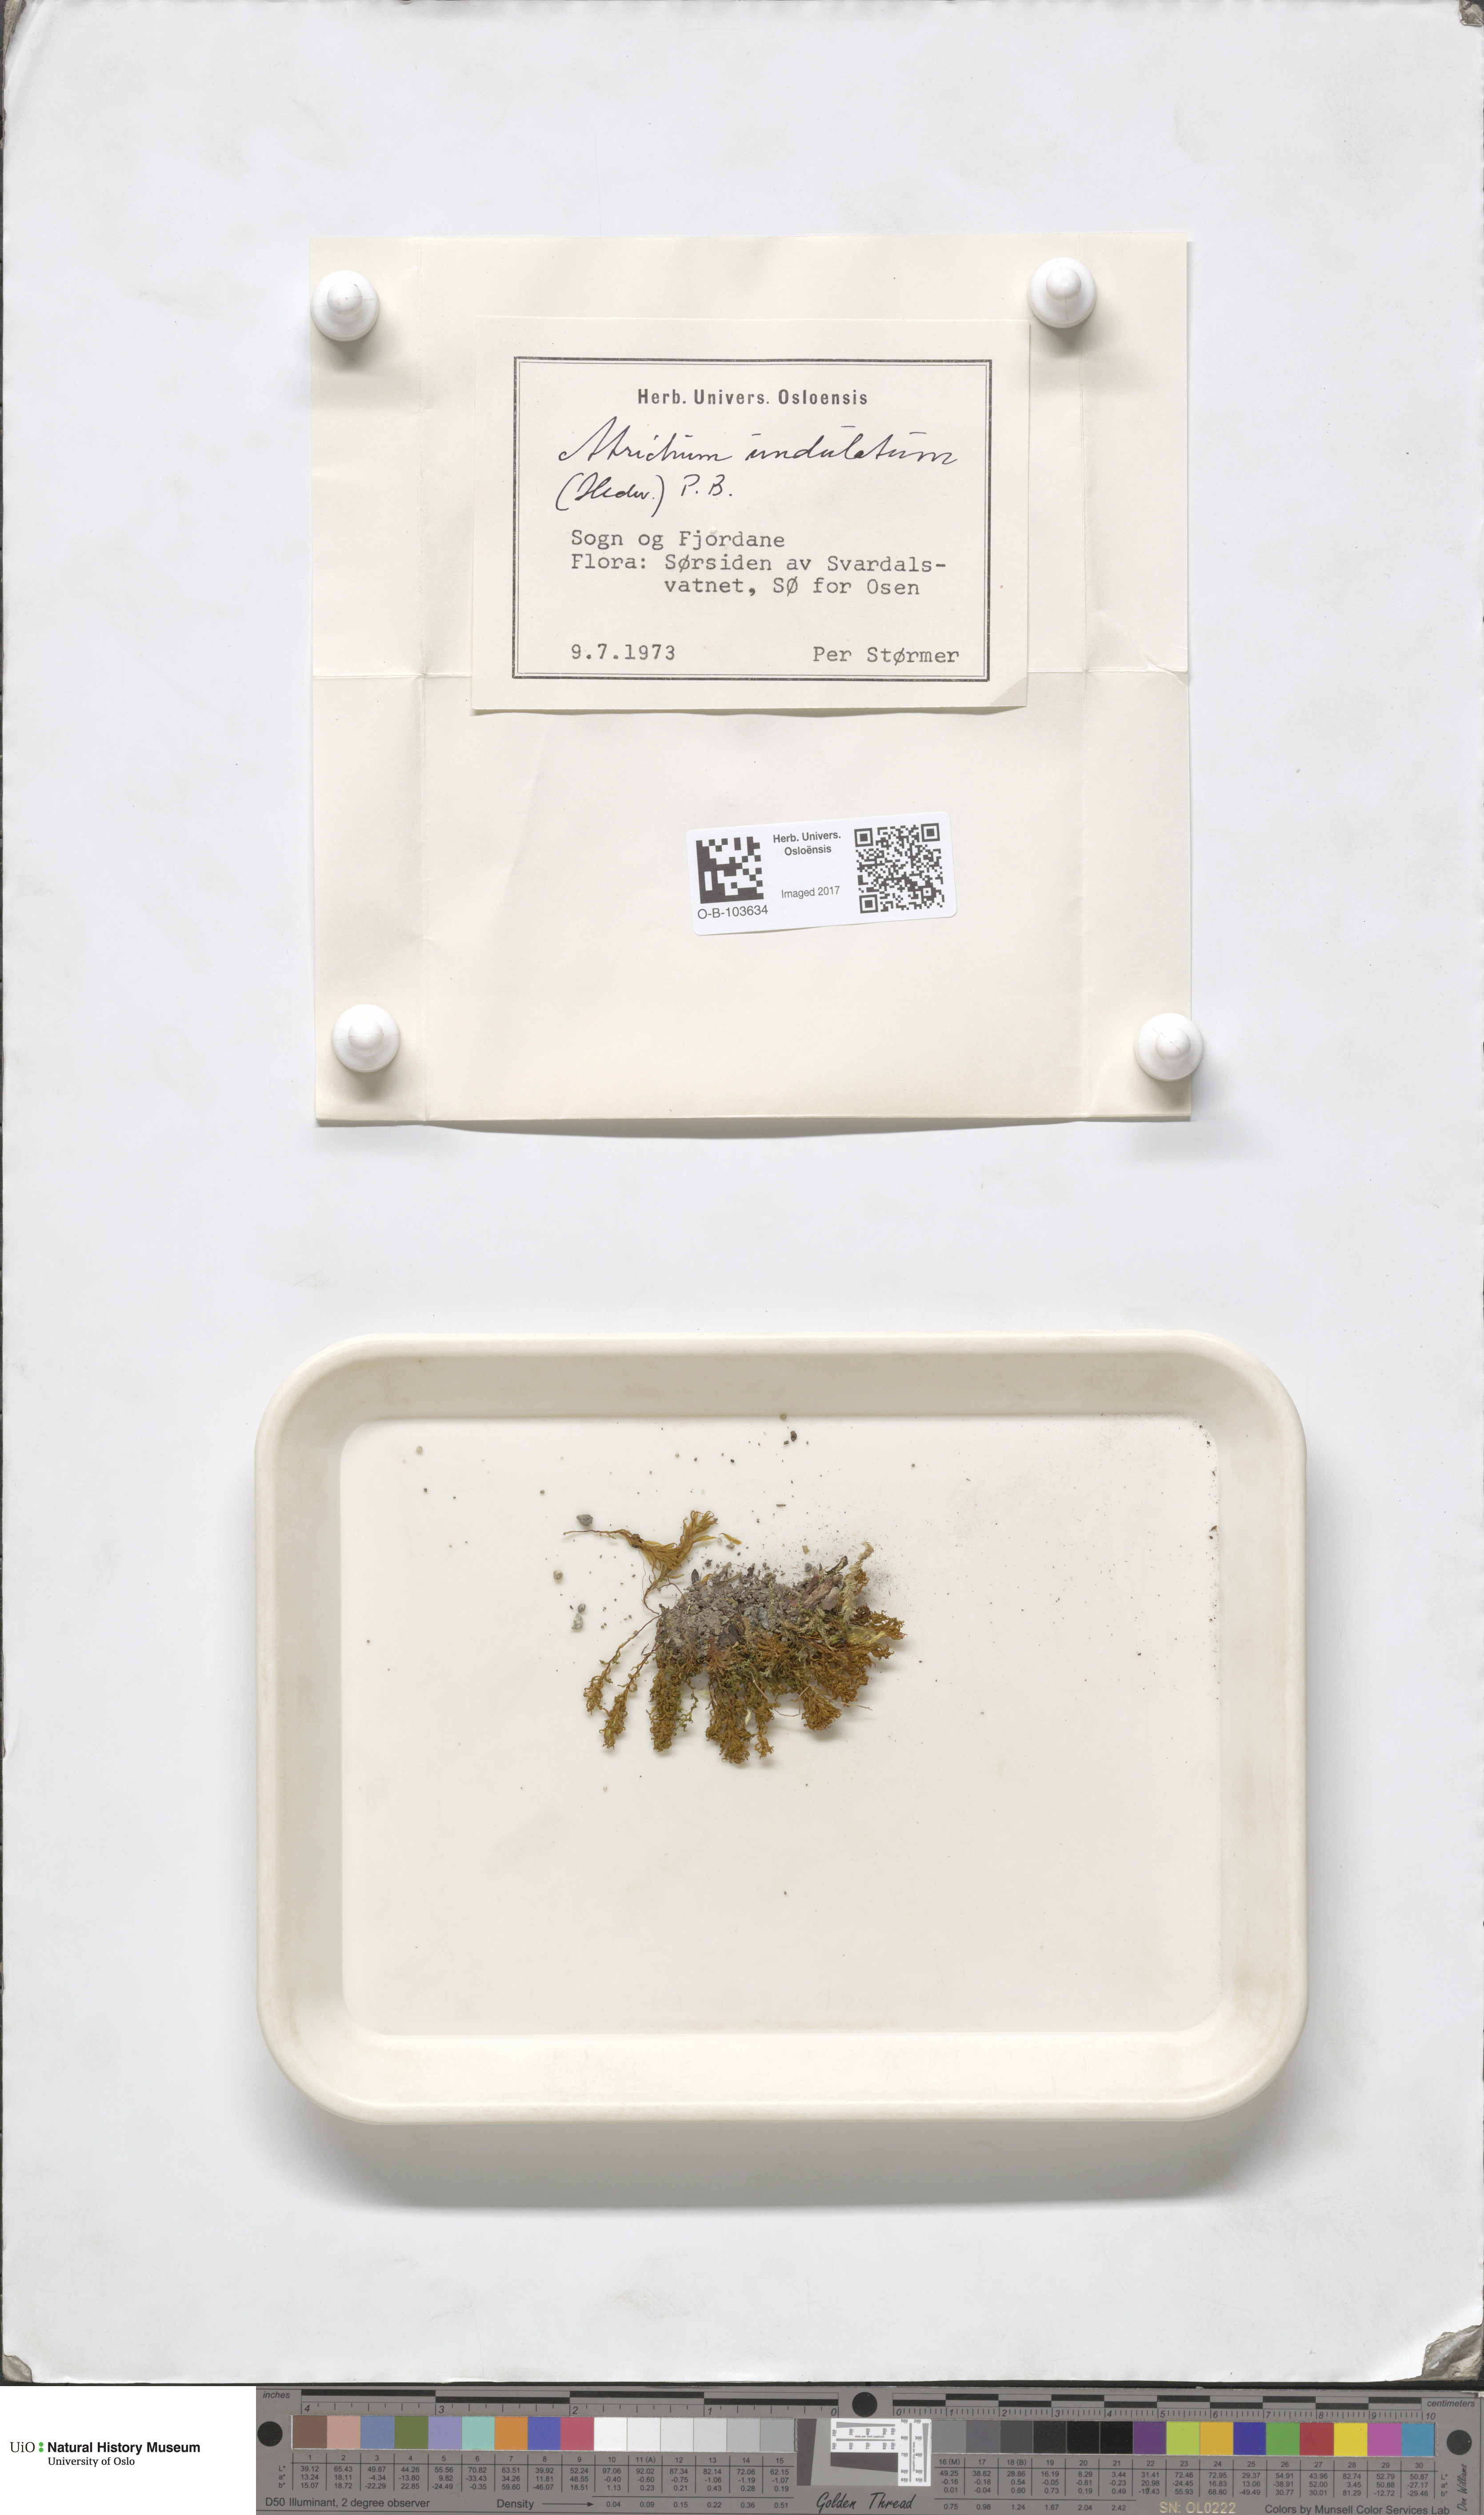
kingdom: Plantae
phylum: Bryophyta
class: Polytrichopsida
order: Polytrichales
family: Polytrichaceae
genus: Atrichum
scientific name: Atrichum undulatum
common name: Common smoothcap
